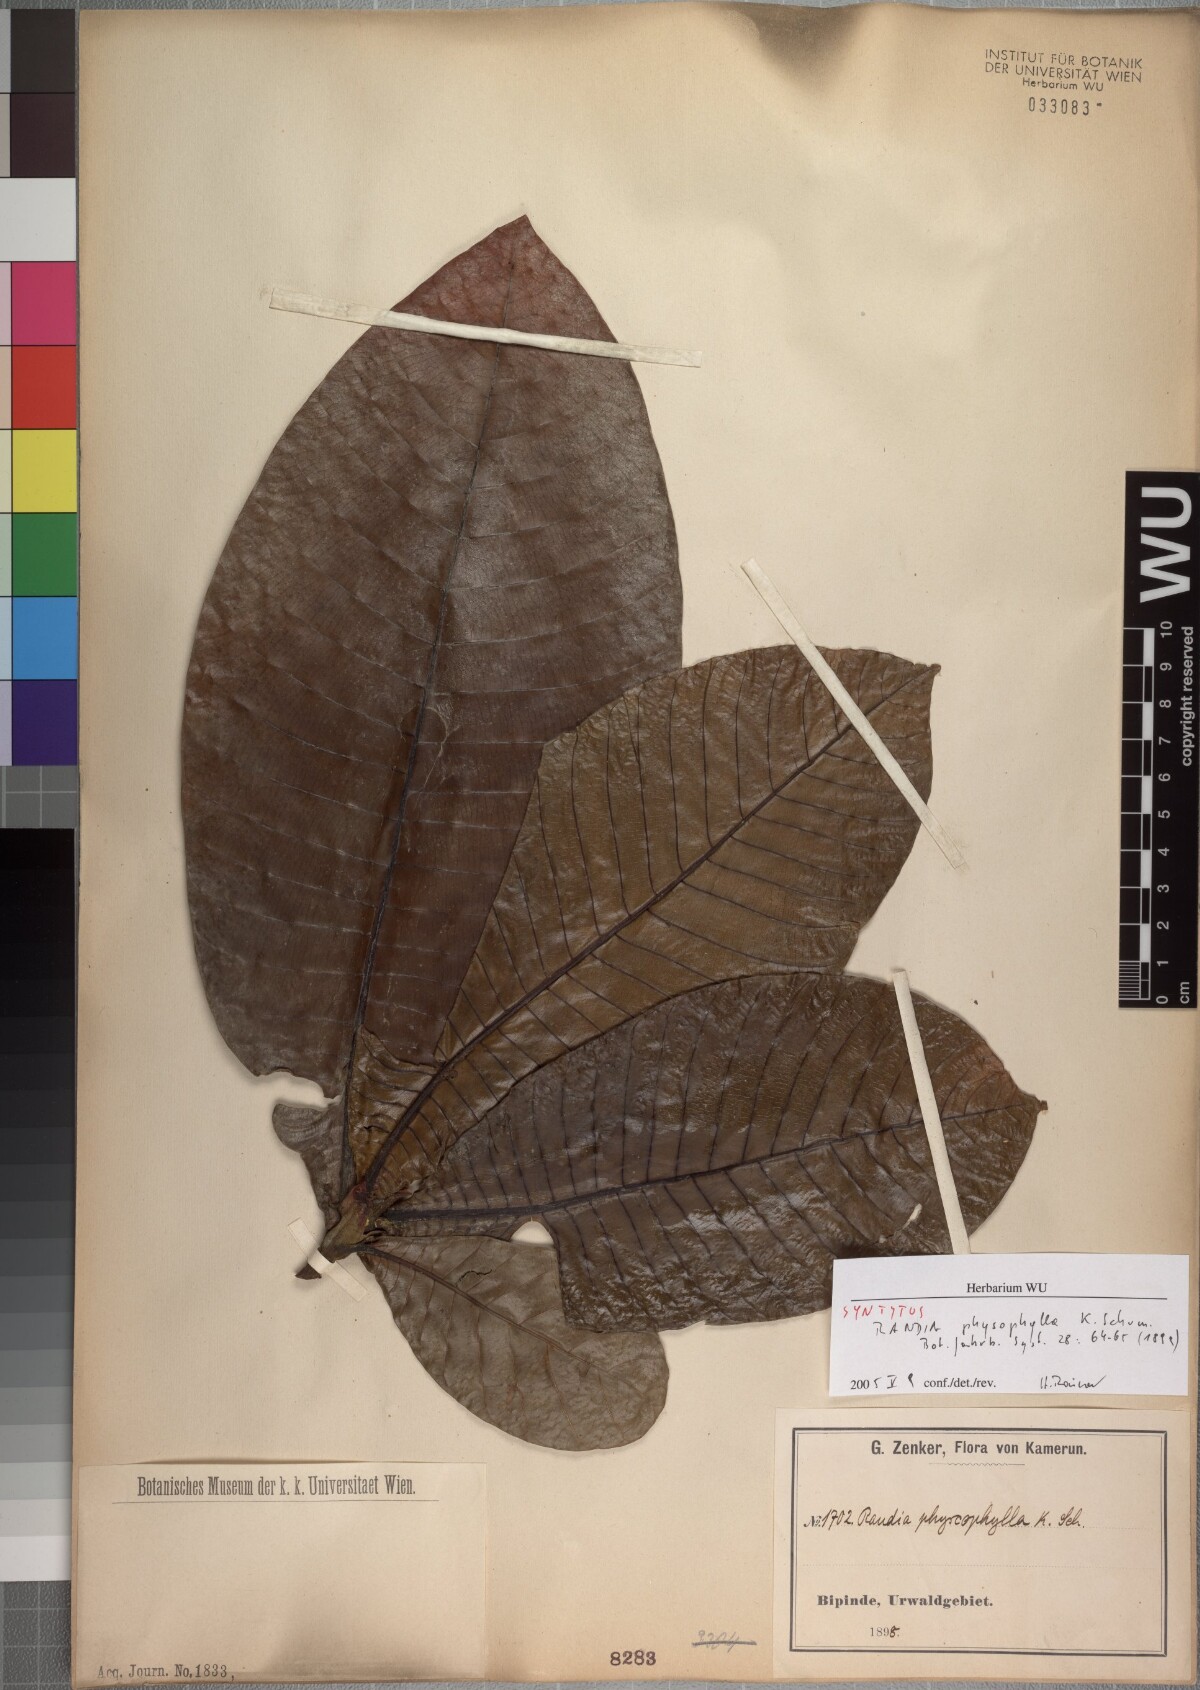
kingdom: Plantae
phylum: Tracheophyta
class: Magnoliopsida
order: Gentianales
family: Rubiaceae
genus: Gardenia
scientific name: Gardenia imperialis
